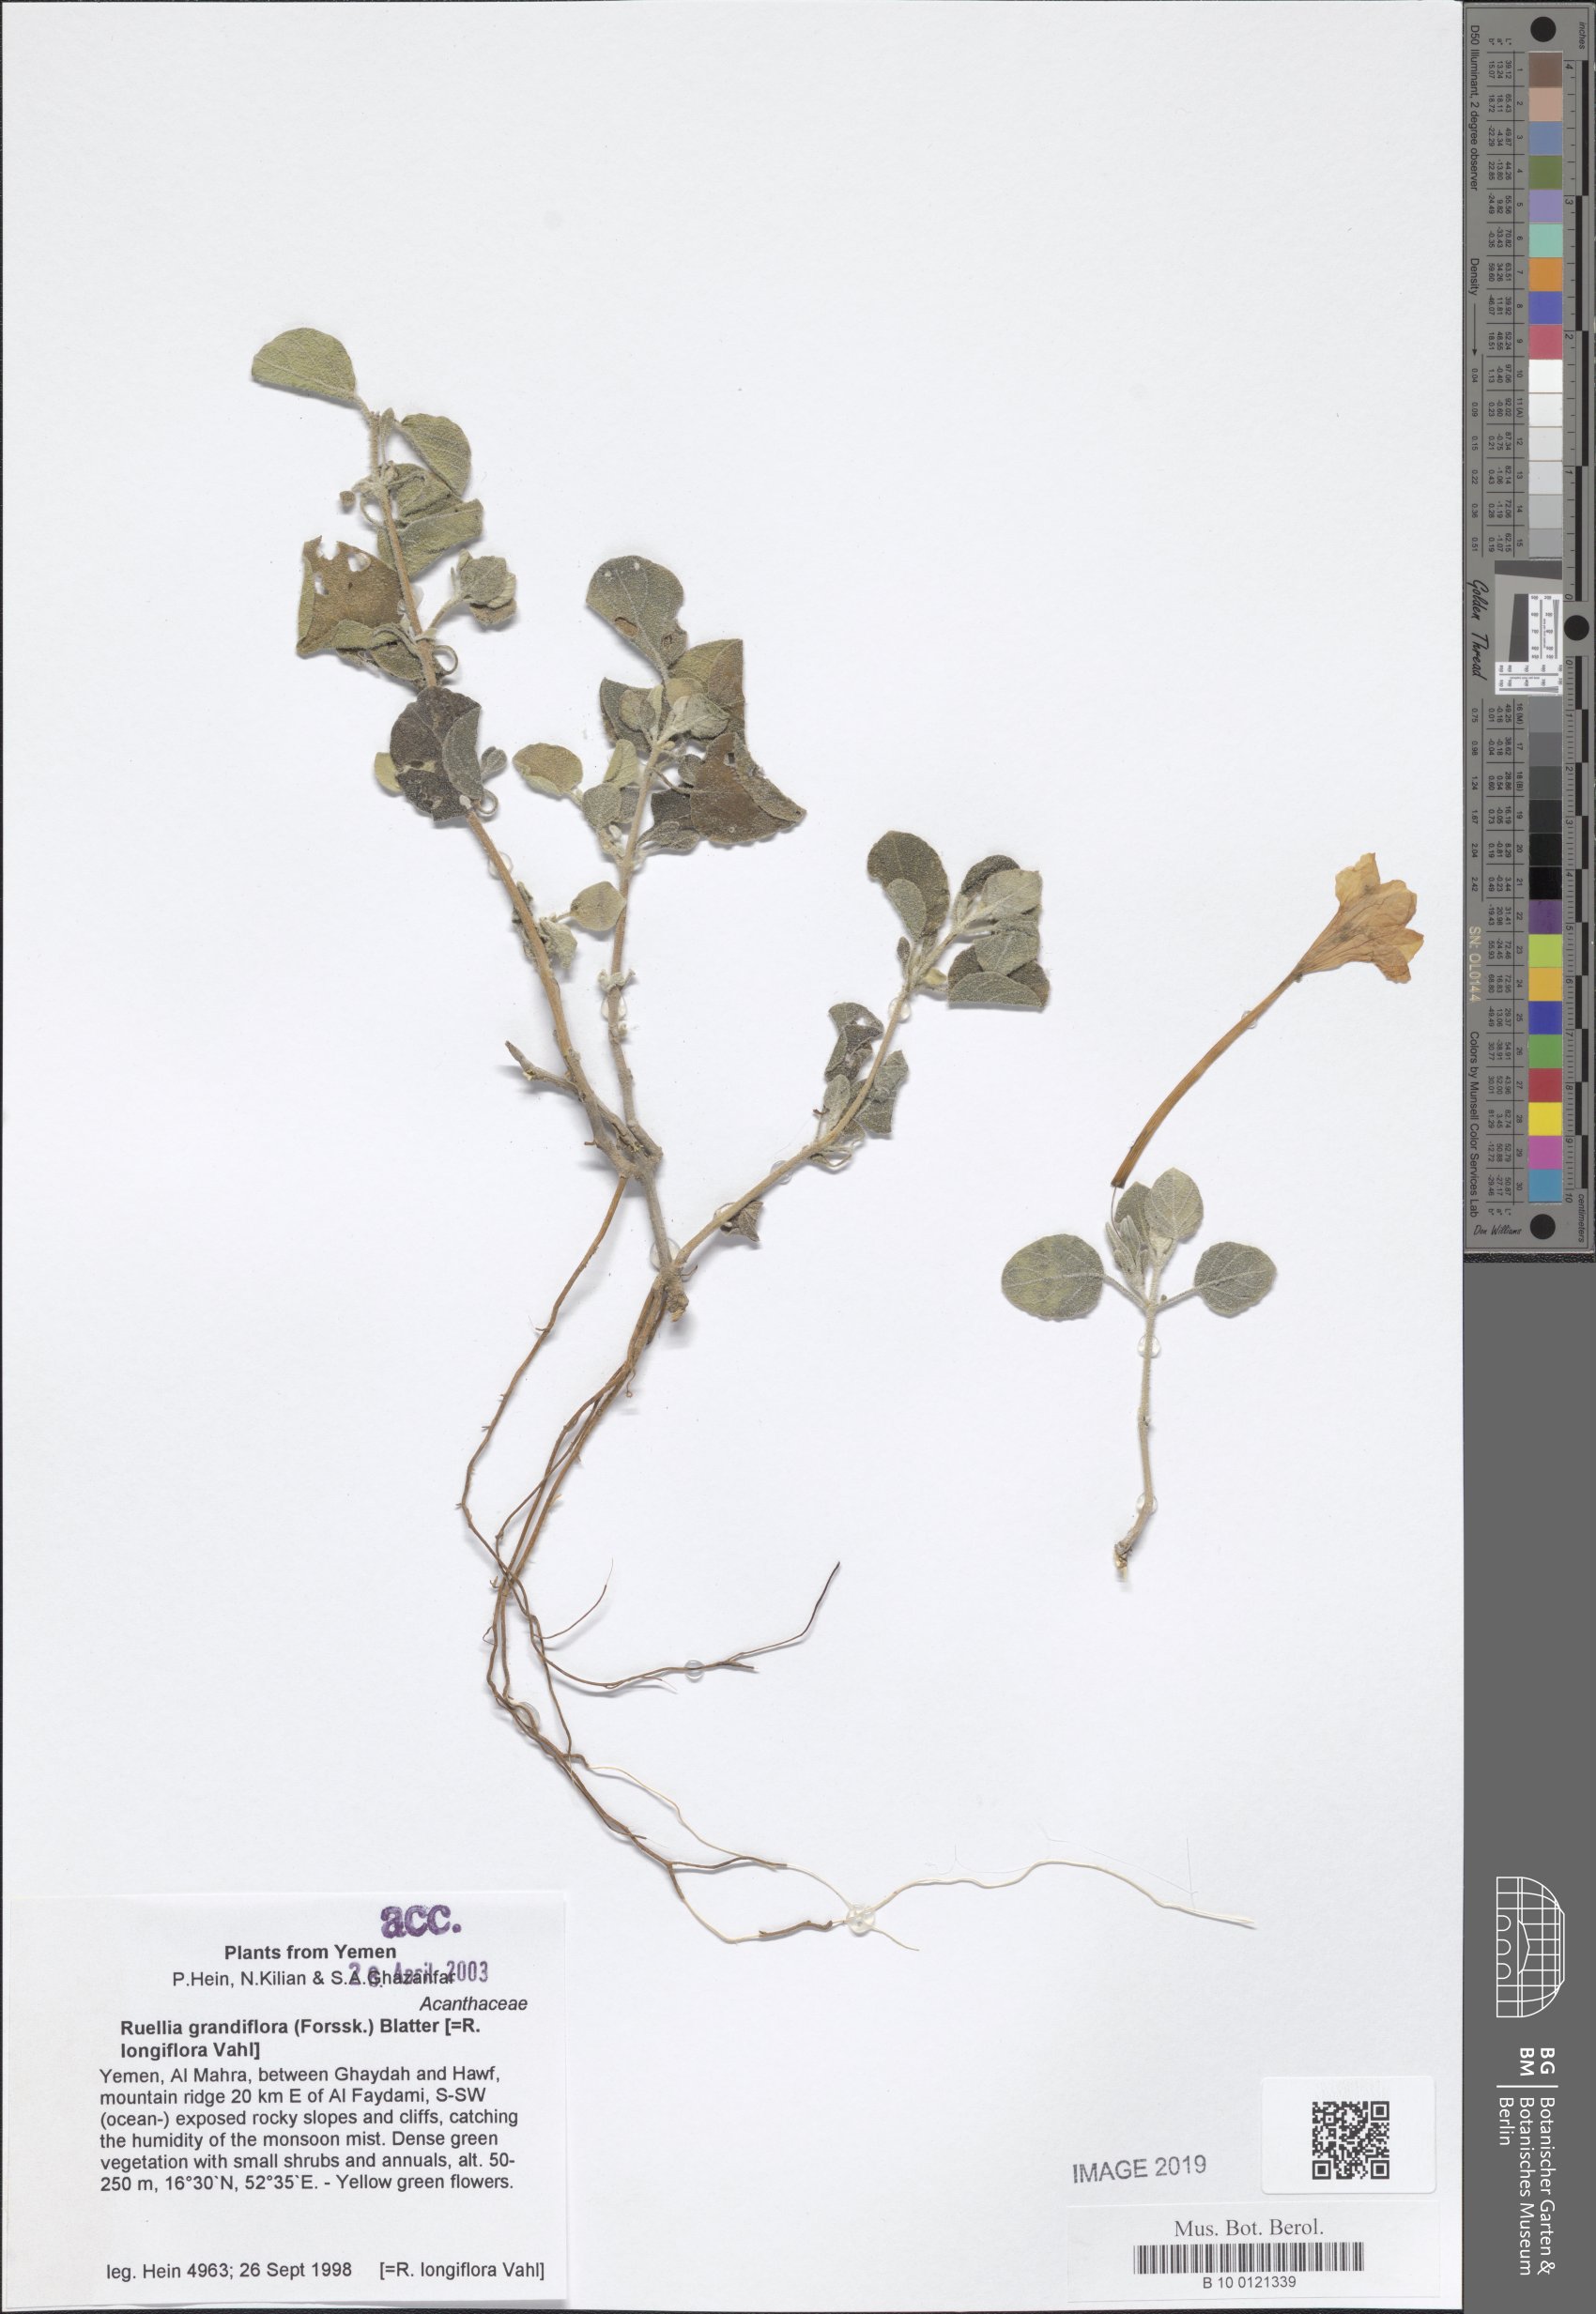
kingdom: Plantae
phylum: Tracheophyta
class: Magnoliopsida
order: Lamiales
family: Acanthaceae
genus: Ruellia
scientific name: Ruellia grandiflora
